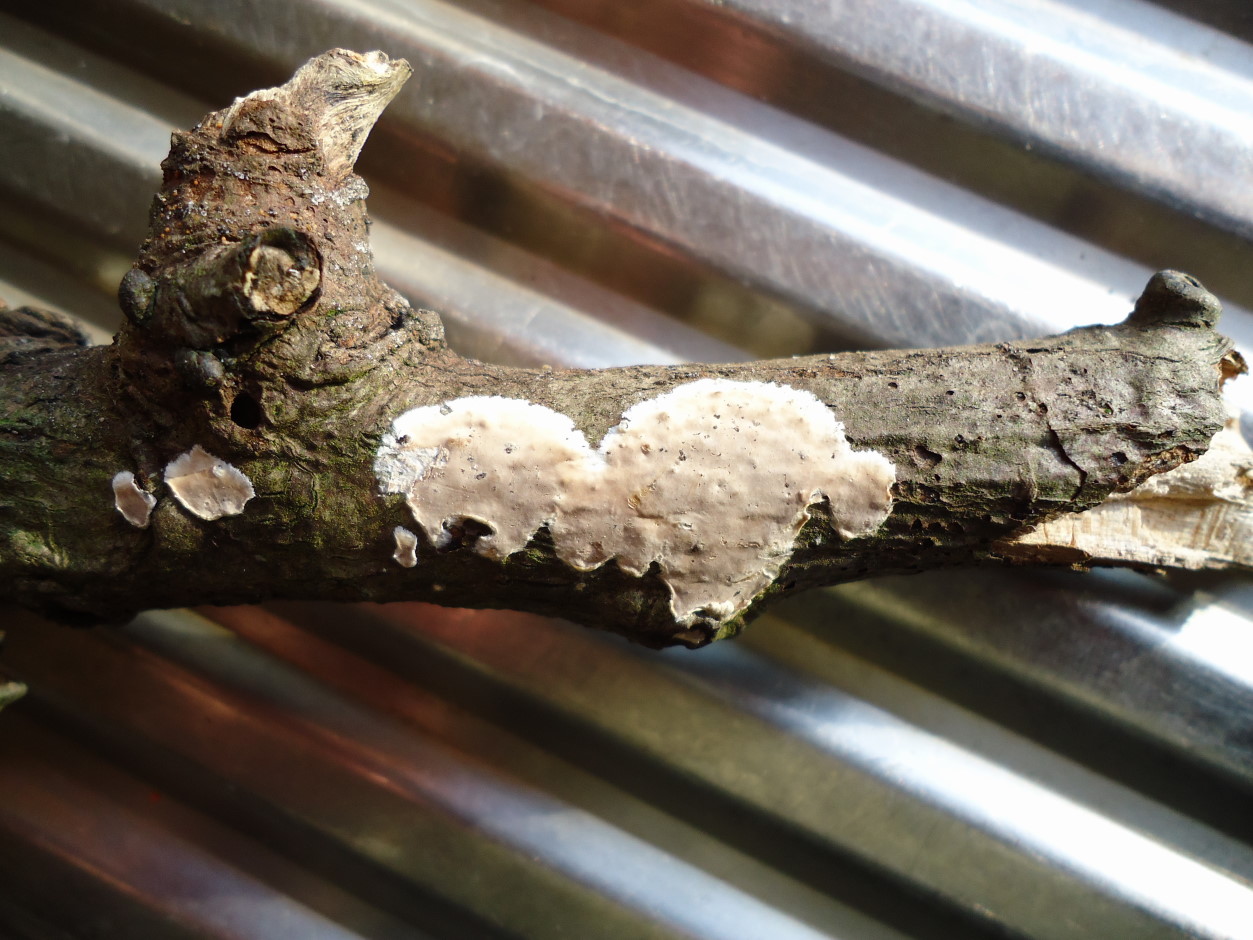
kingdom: Fungi
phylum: Basidiomycota
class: Agaricomycetes
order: Agaricales
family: Physalacriaceae
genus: Cylindrobasidium
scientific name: Cylindrobasidium evolvens
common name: sprækkehinde
